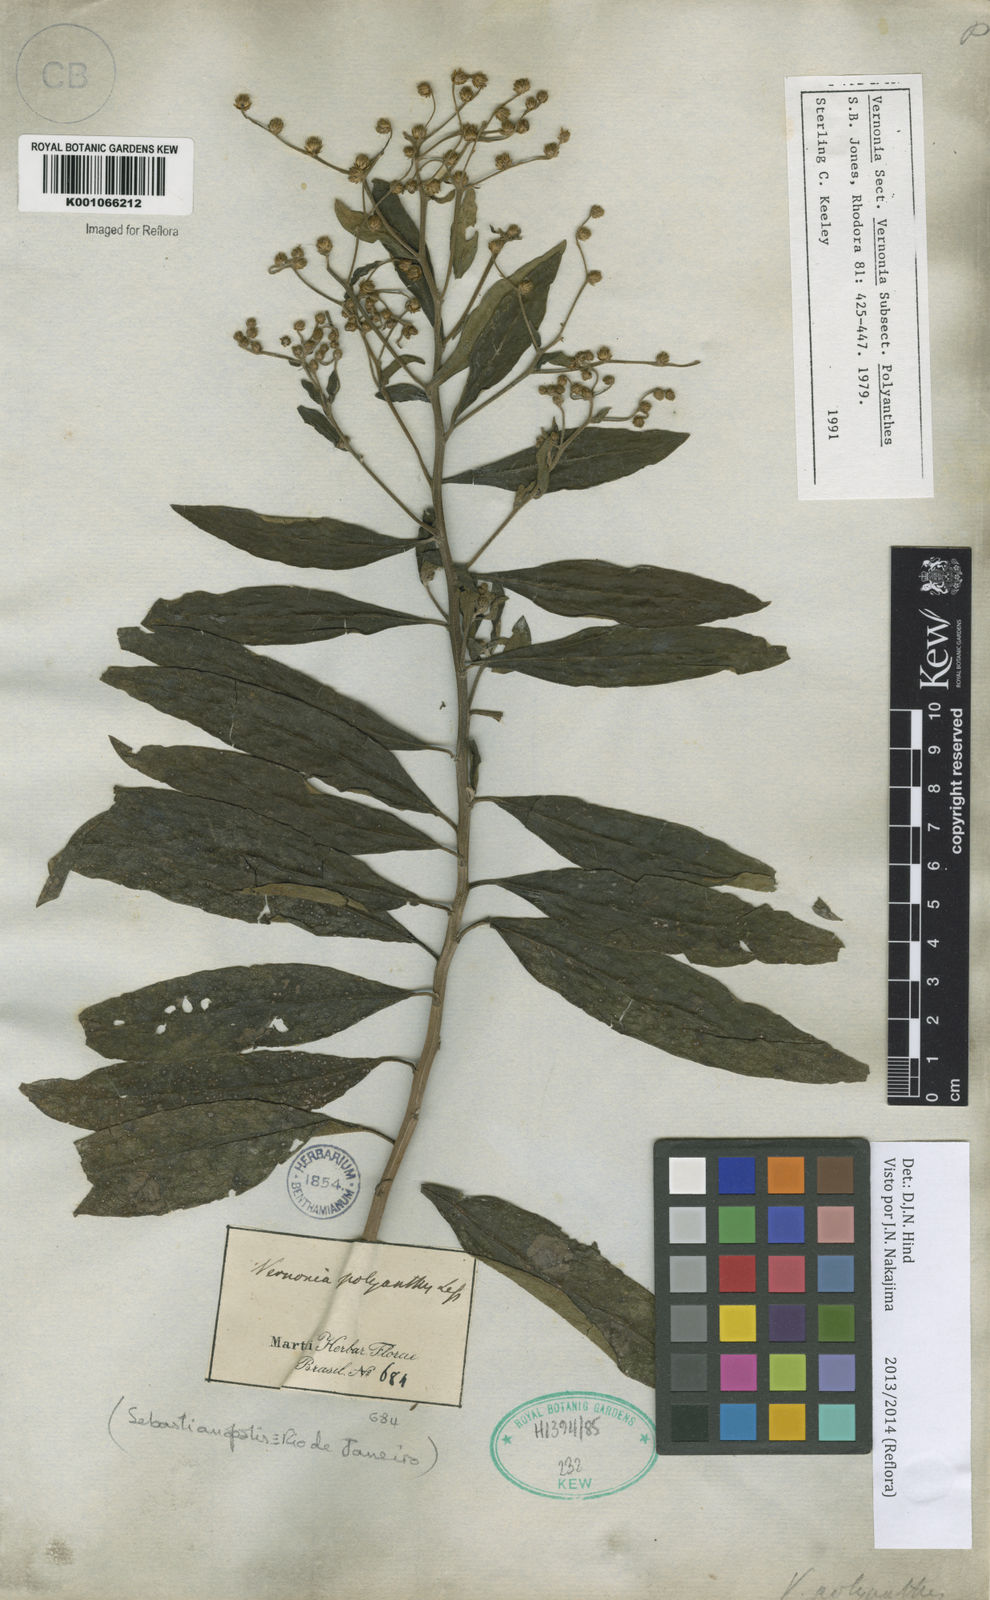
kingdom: Plantae
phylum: Tracheophyta
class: Magnoliopsida
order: Asterales
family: Asteraceae
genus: Vernonanthura
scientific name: Vernonanthura polyanthes
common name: Tree aster
